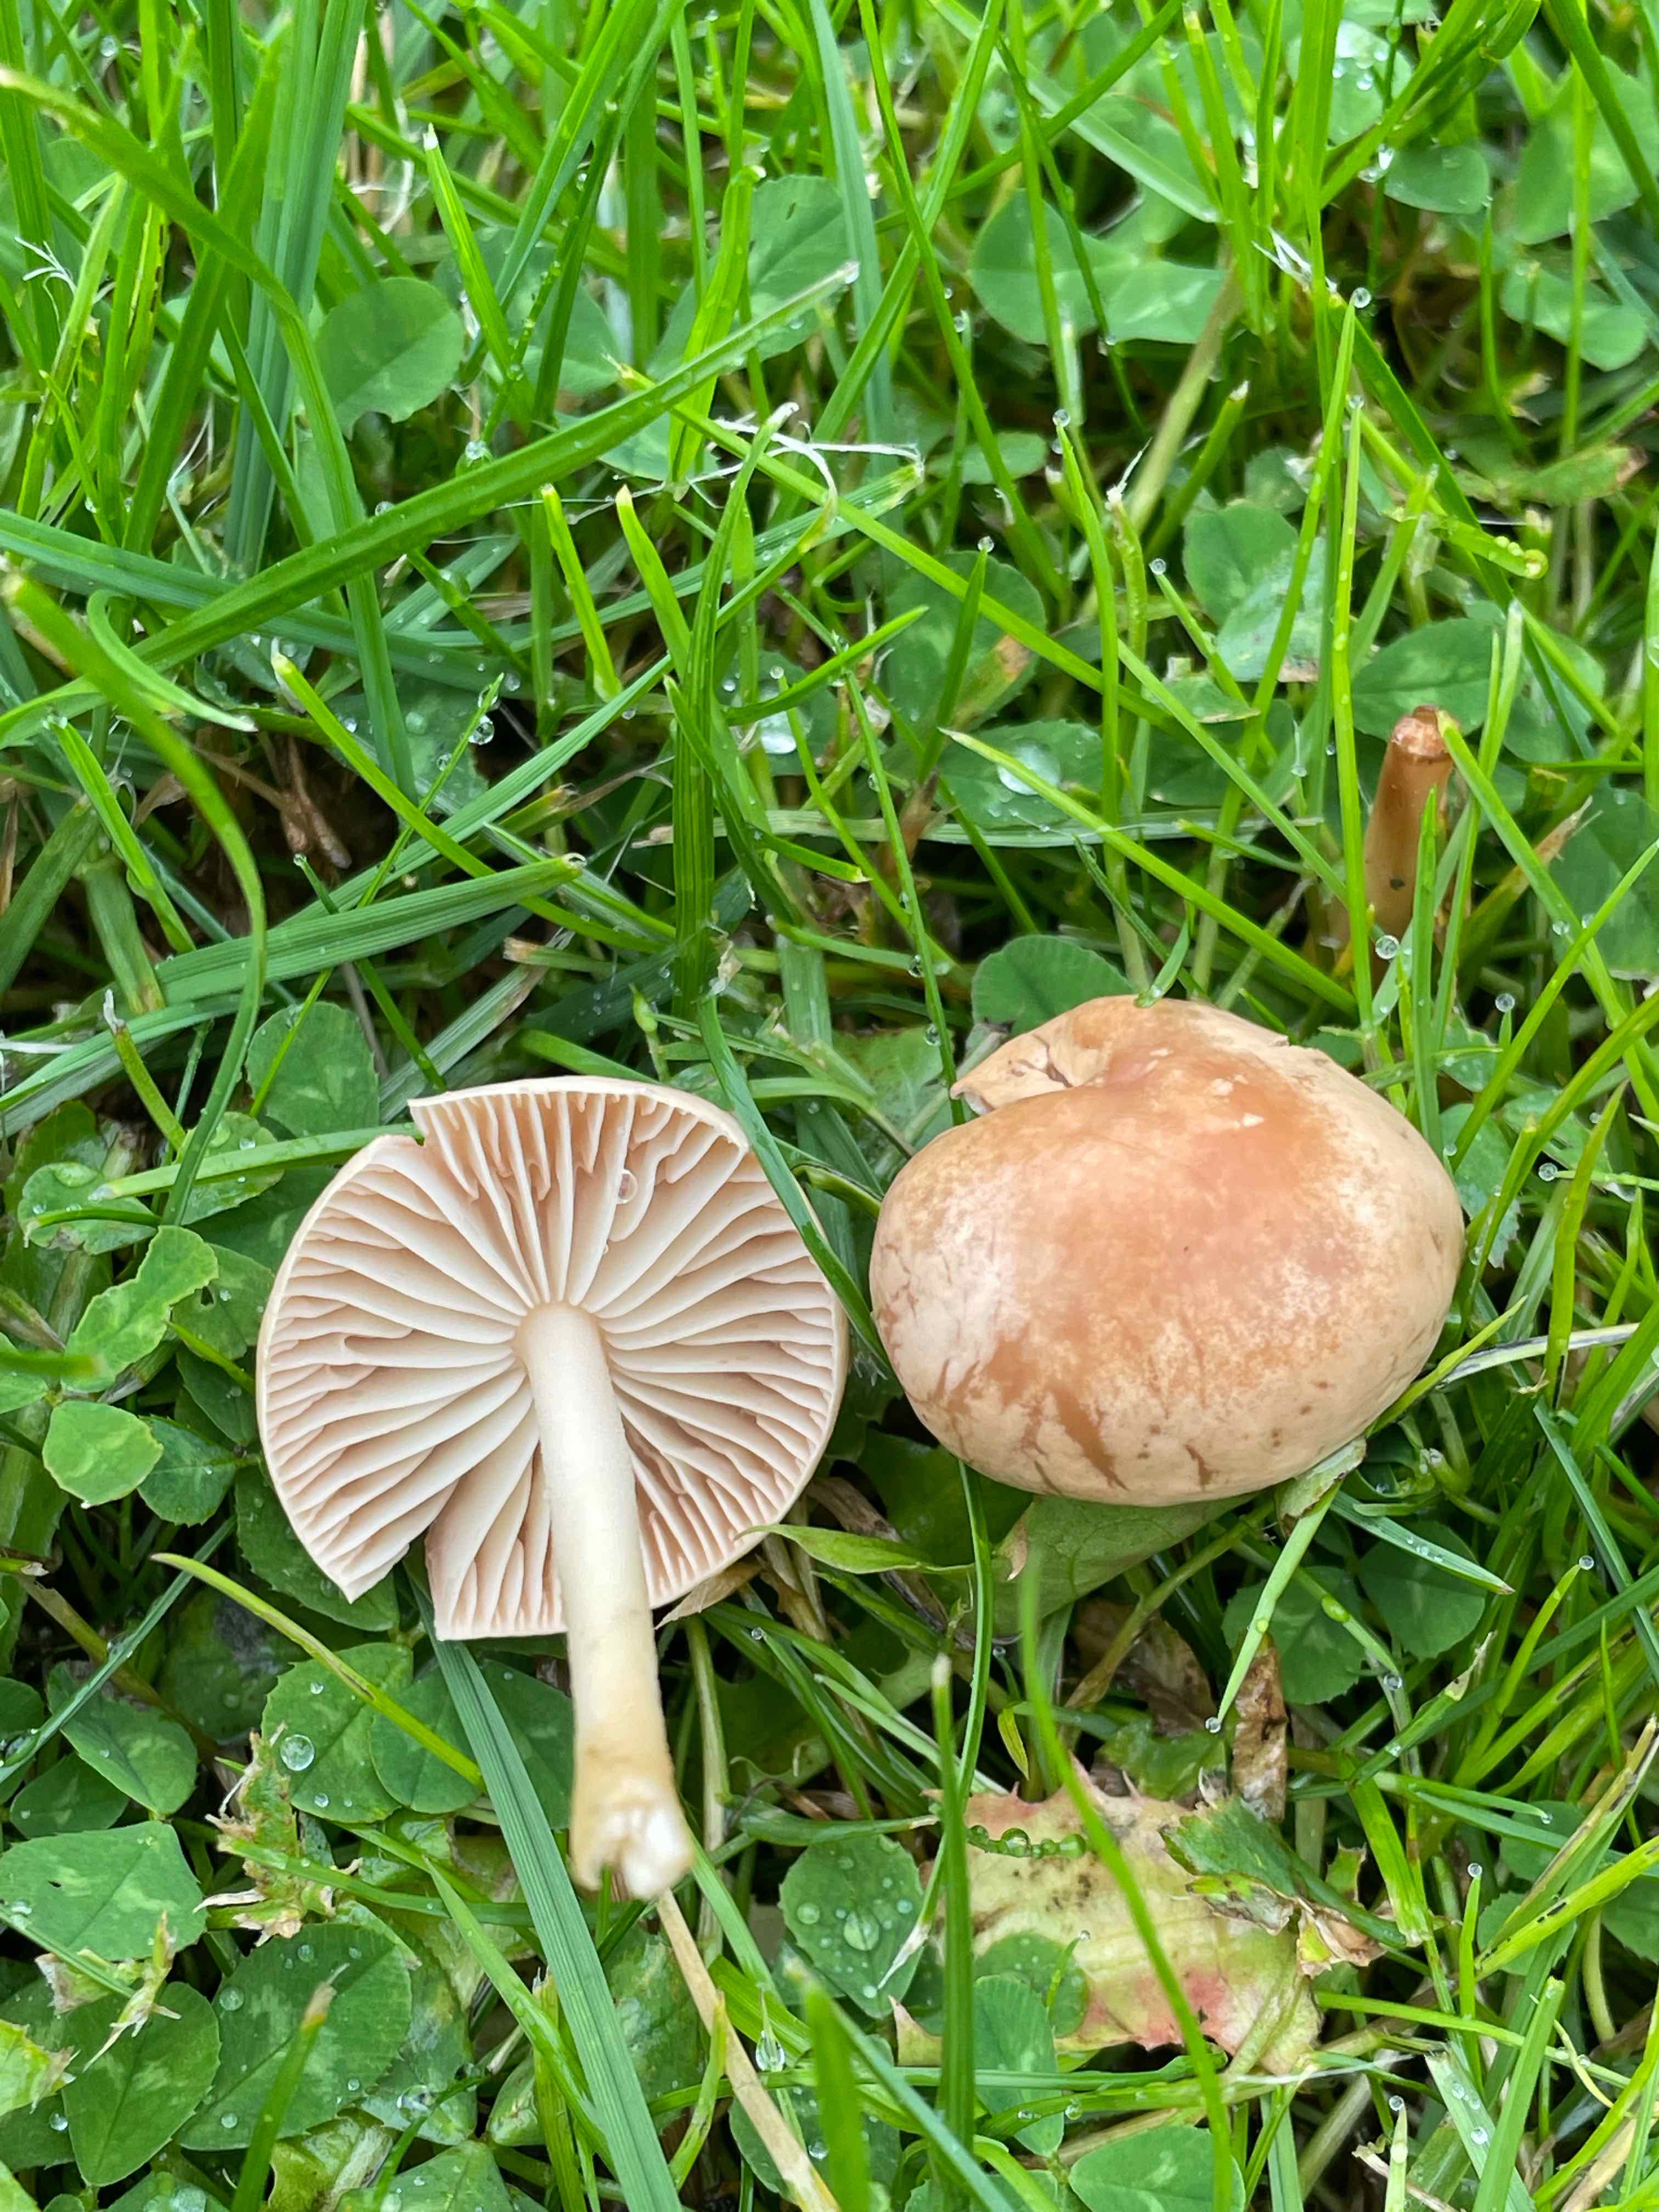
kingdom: Fungi
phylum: Basidiomycota
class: Agaricomycetes
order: Agaricales
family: Marasmiaceae
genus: Marasmius
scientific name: Marasmius oreades
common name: elledans-bruskhat
